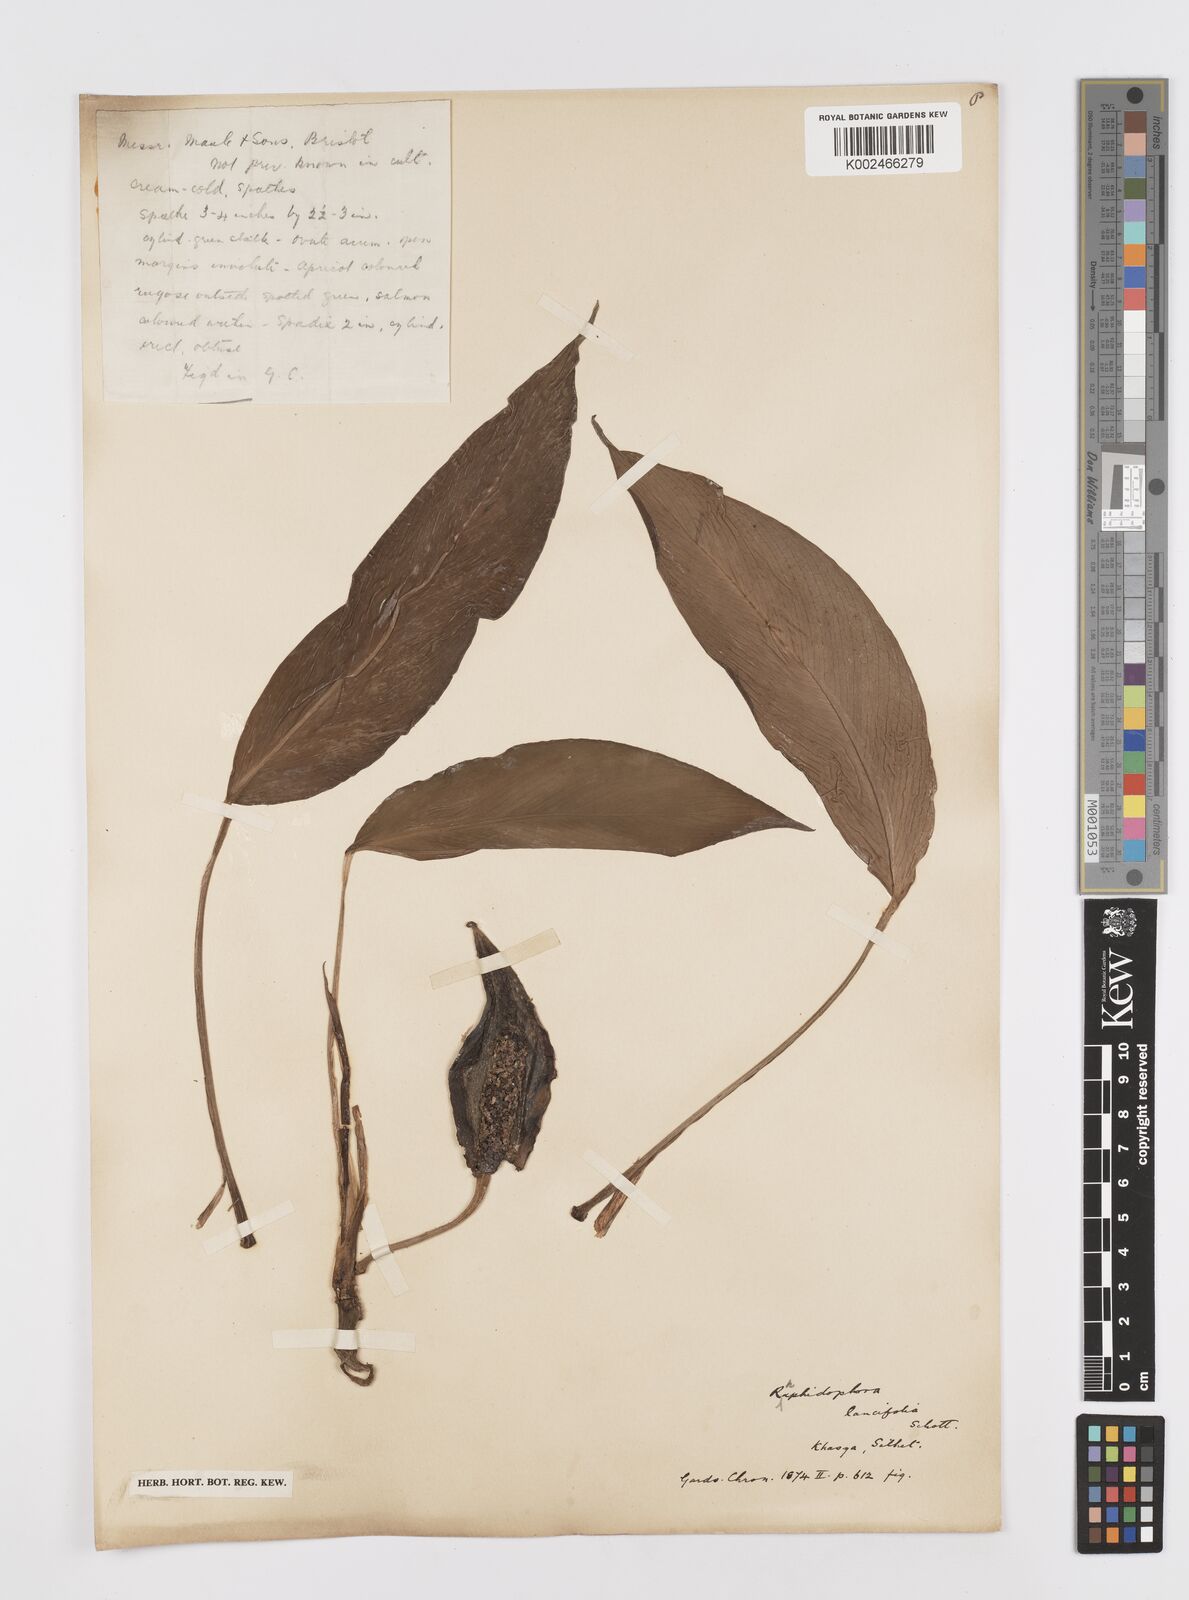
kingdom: Plantae
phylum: Tracheophyta
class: Liliopsida
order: Alismatales
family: Araceae
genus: Rhaphidophora
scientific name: Rhaphidophora peepla
